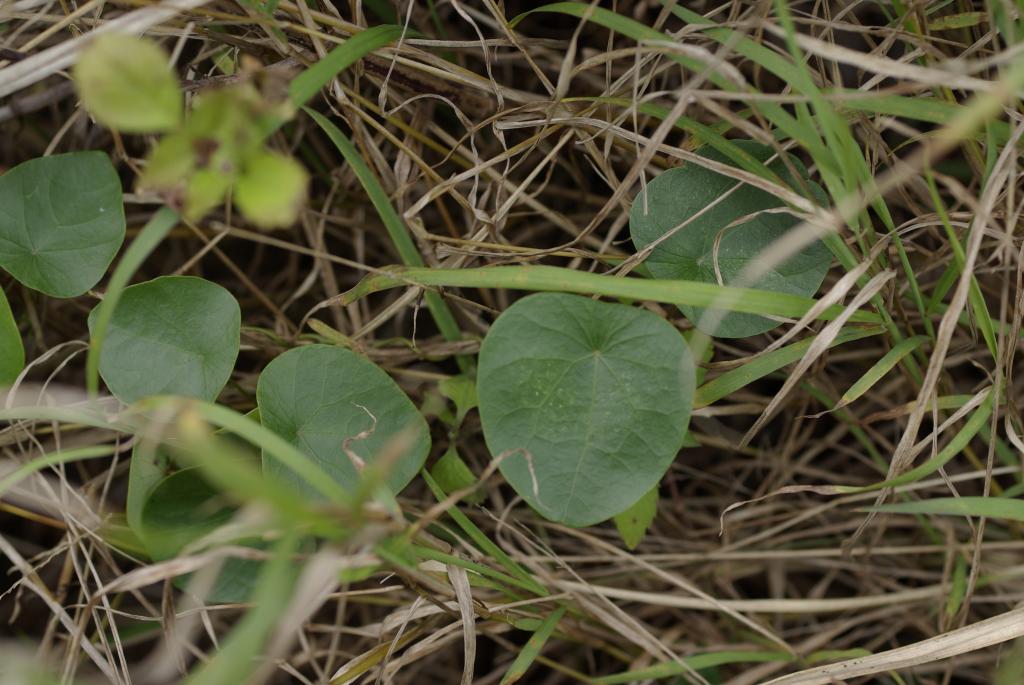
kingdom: Plantae
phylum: Tracheophyta
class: Magnoliopsida
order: Ranunculales
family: Menispermaceae
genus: Stephania
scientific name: Stephania japonica
